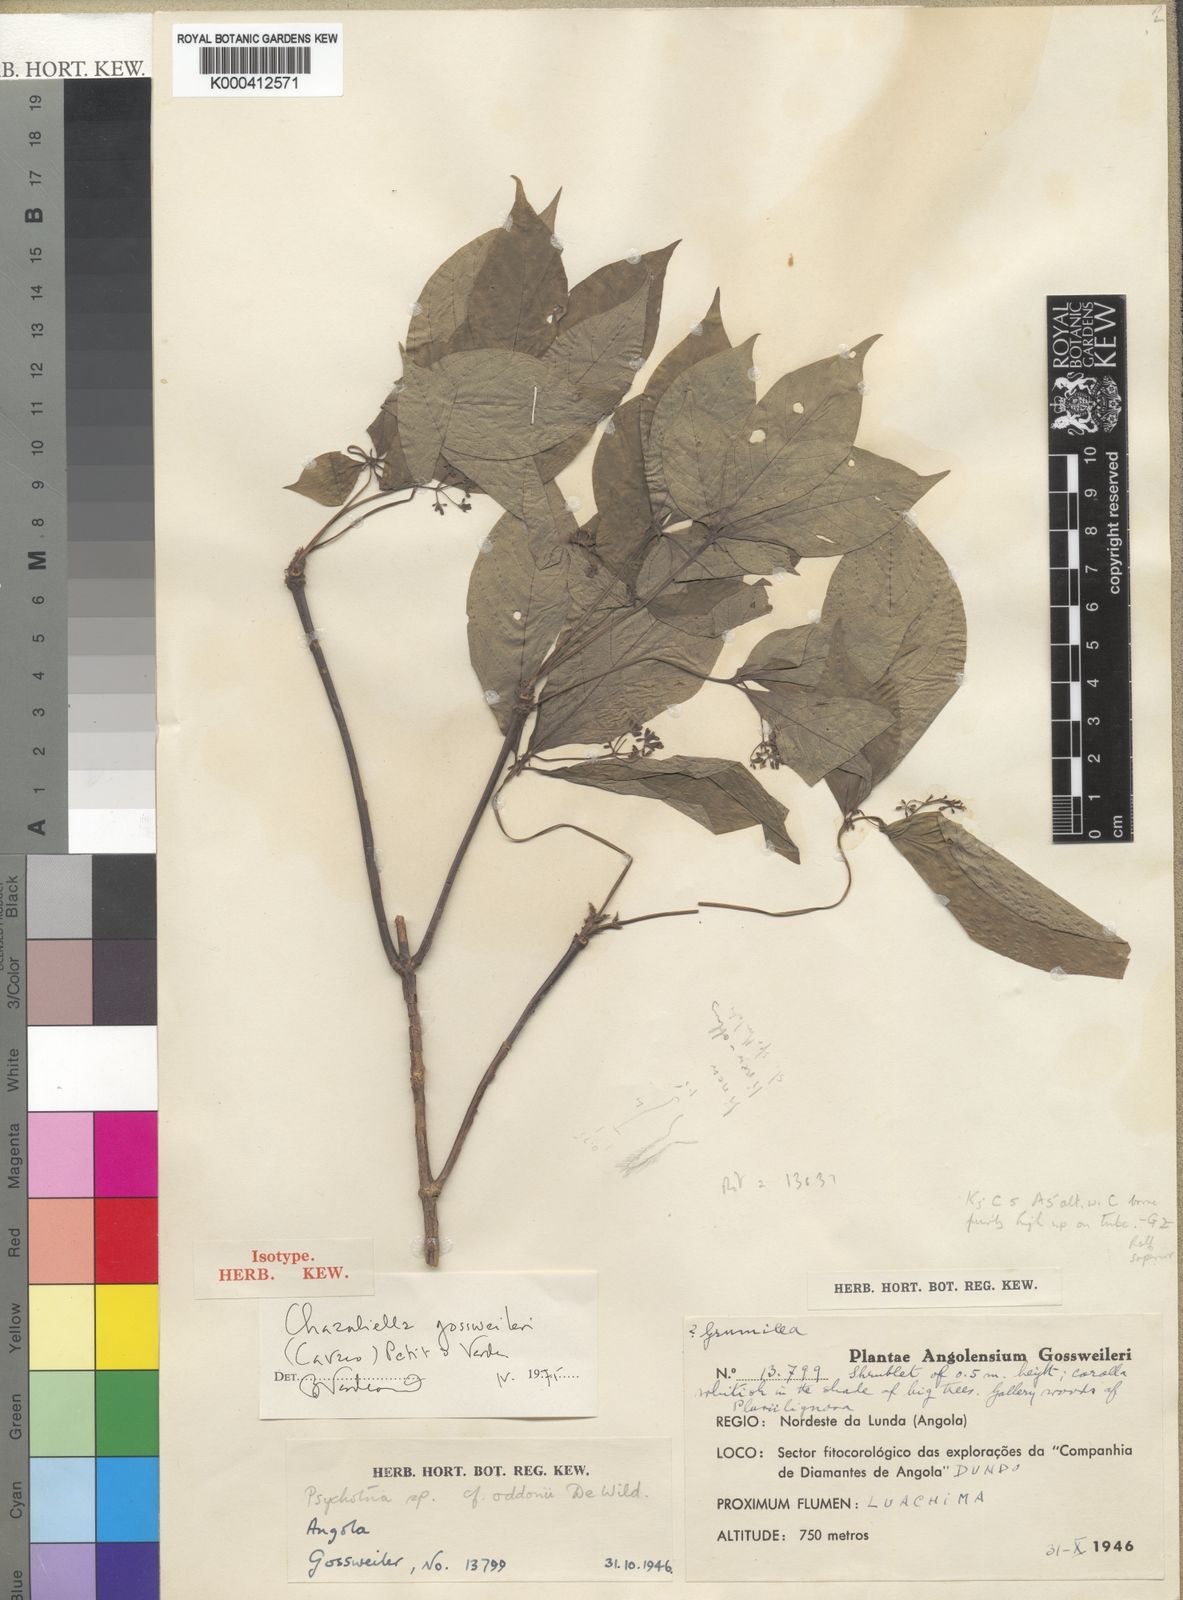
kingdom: Plantae
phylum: Tracheophyta
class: Magnoliopsida
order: Gentianales
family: Rubiaceae
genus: Eumachia
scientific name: Eumachia gossweileri
